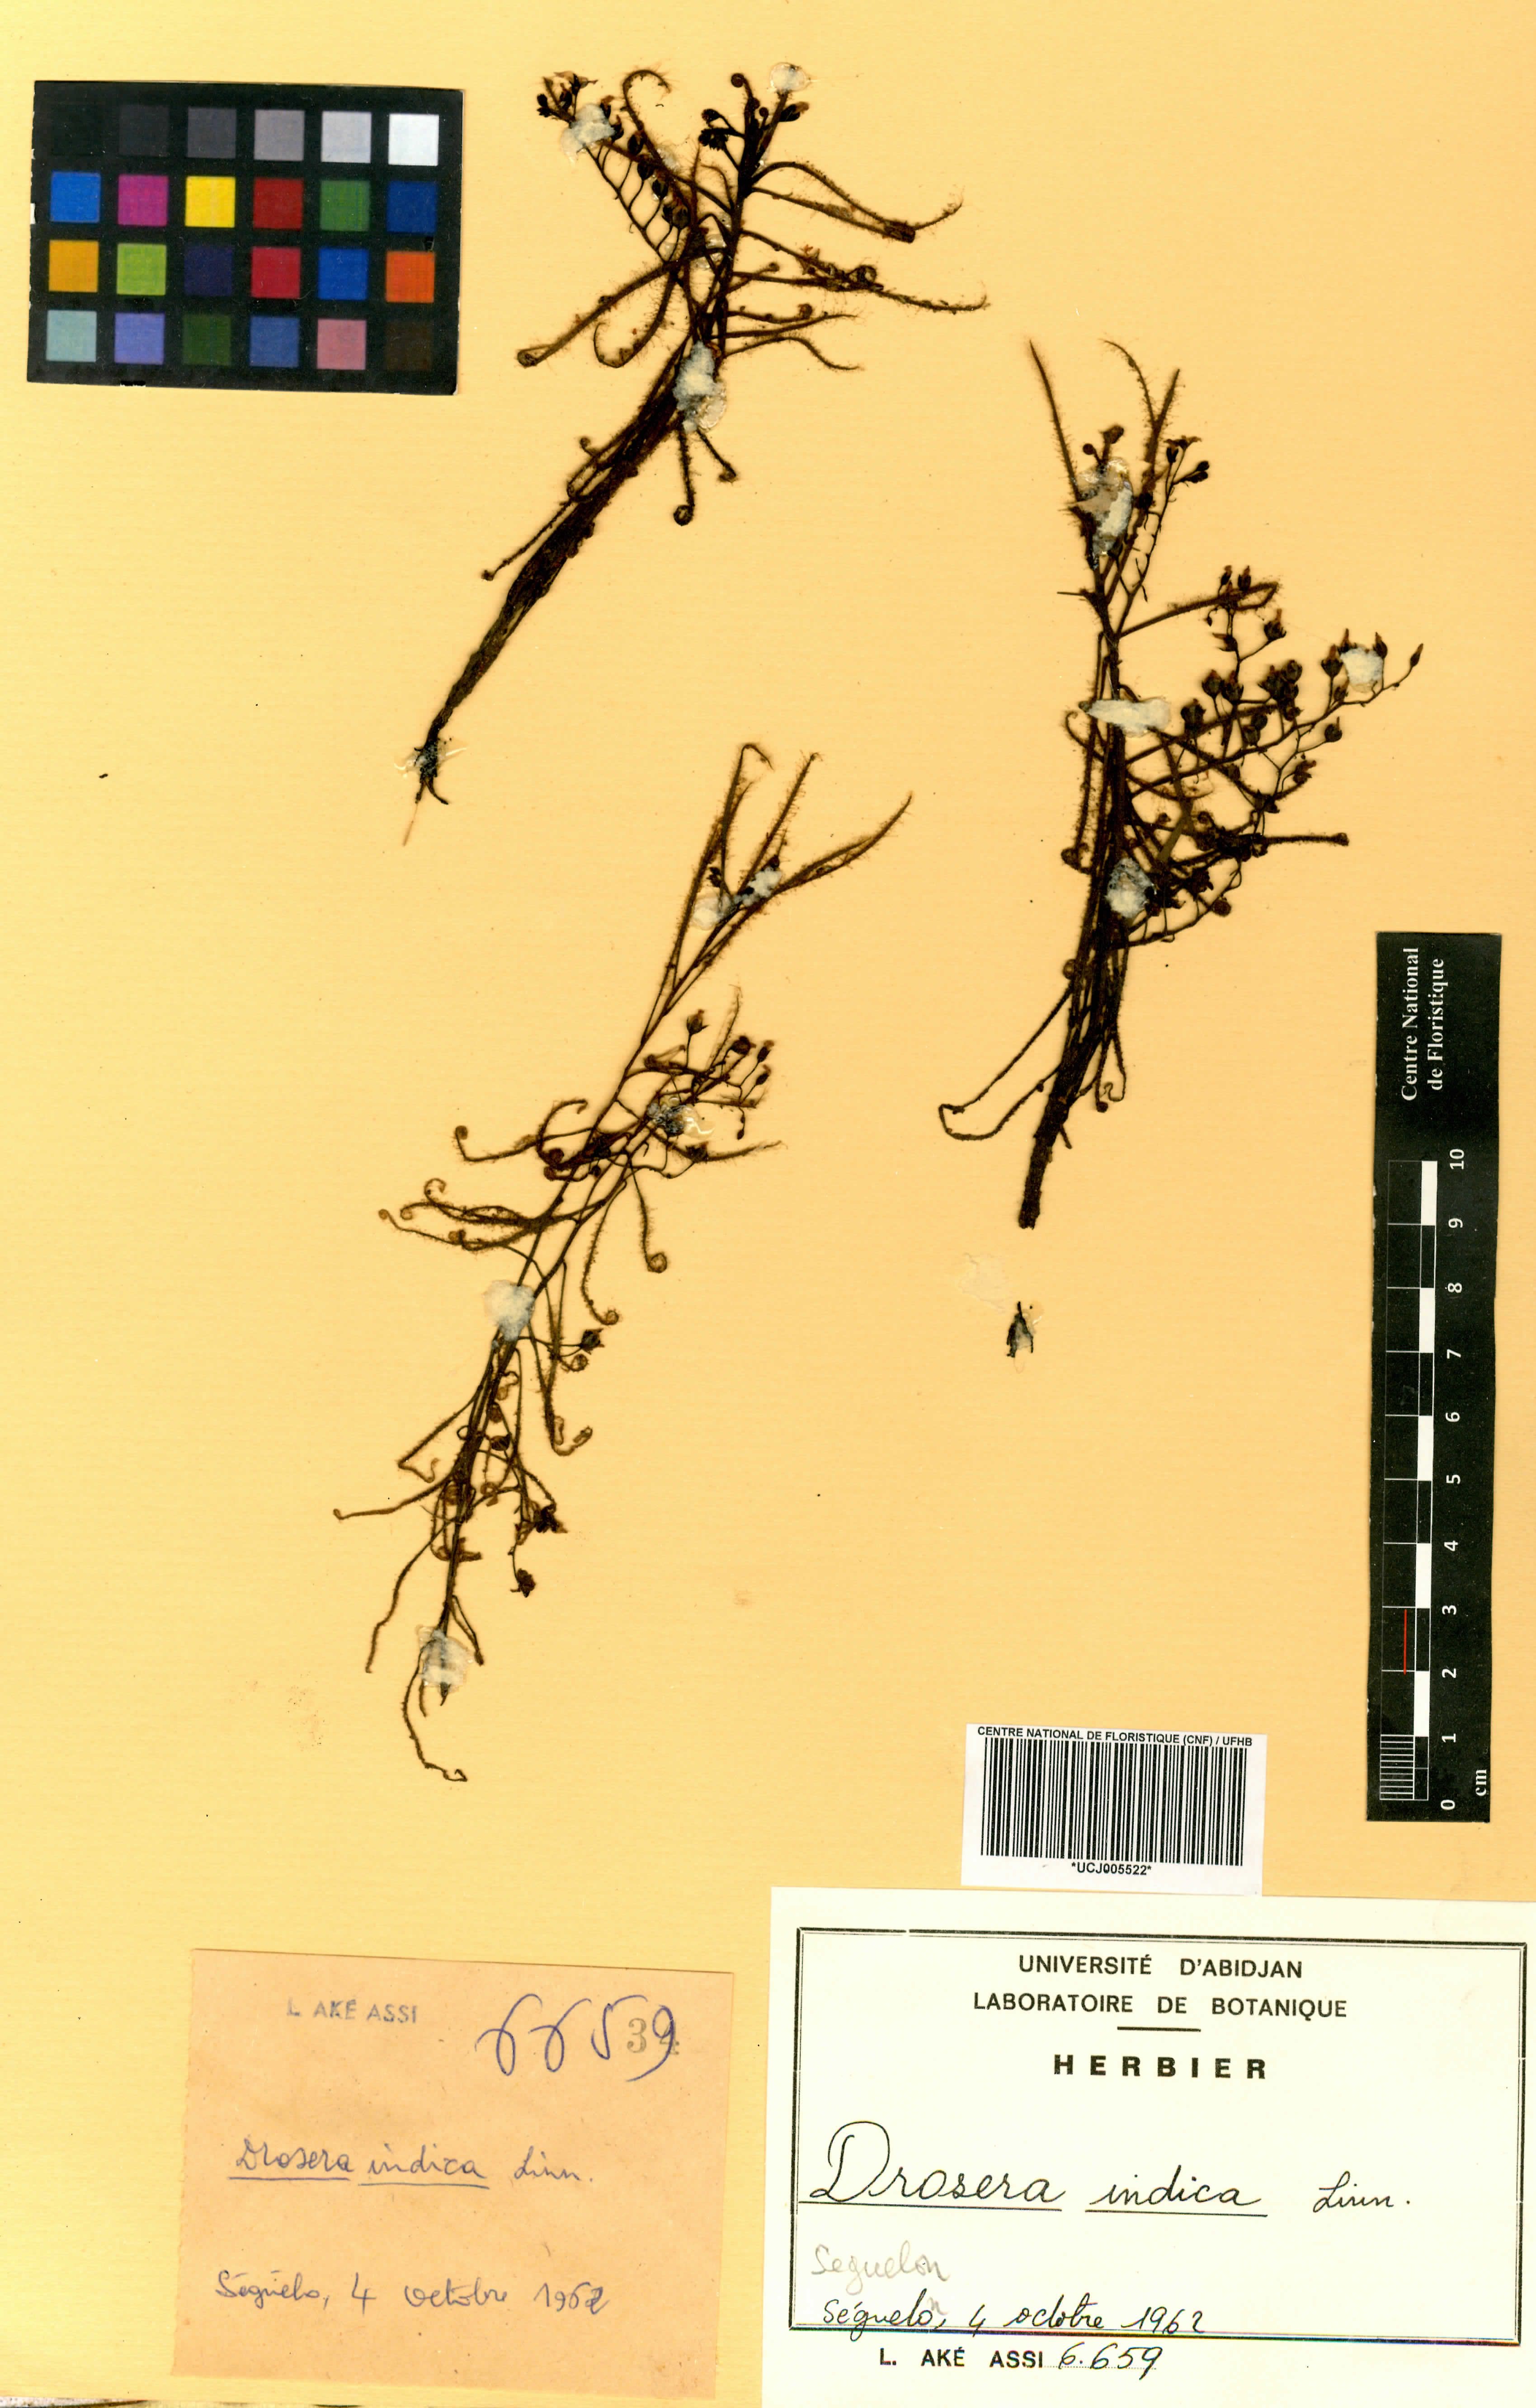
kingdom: Plantae
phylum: Tracheophyta
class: Magnoliopsida
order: Caryophyllales
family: Droseraceae
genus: Drosera
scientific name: Drosera indica
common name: Indian sundew
